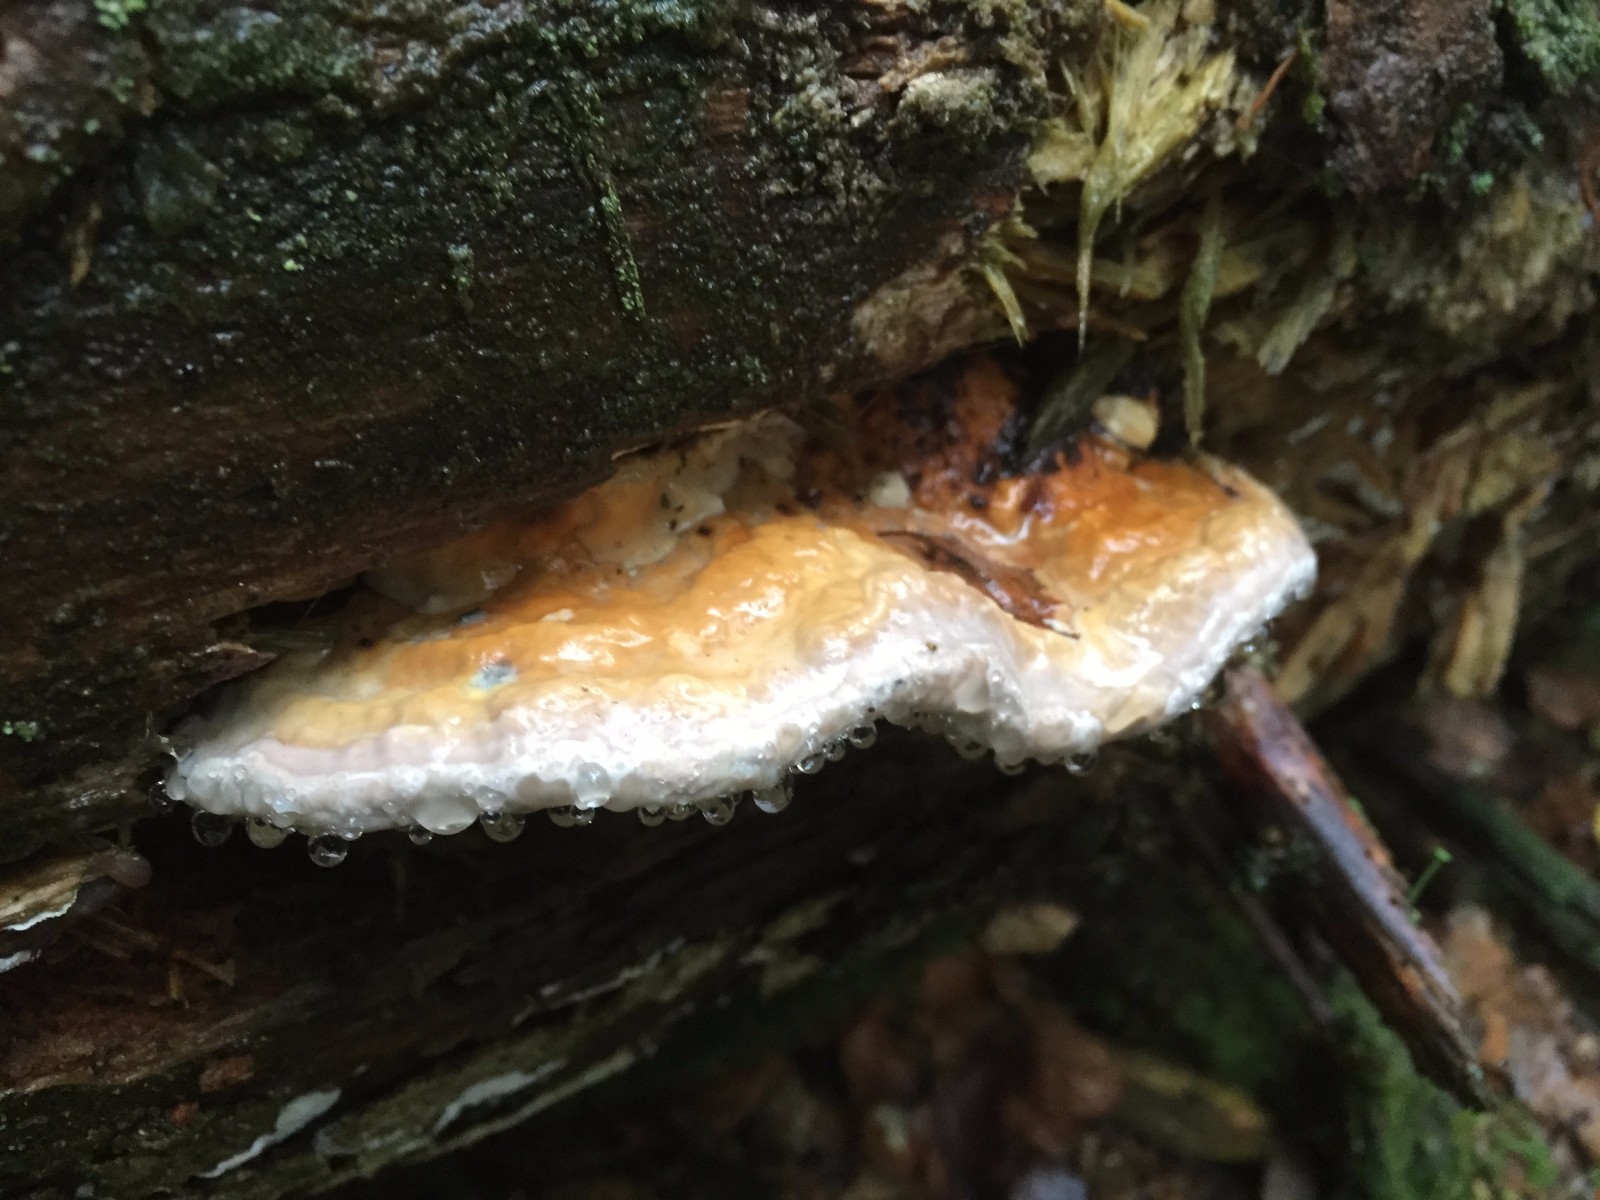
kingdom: Fungi
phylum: Basidiomycota
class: Agaricomycetes
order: Polyporales
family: Fomitopsidaceae
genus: Fomitopsis
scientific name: Fomitopsis pinicola
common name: randbæltet hovporesvamp
